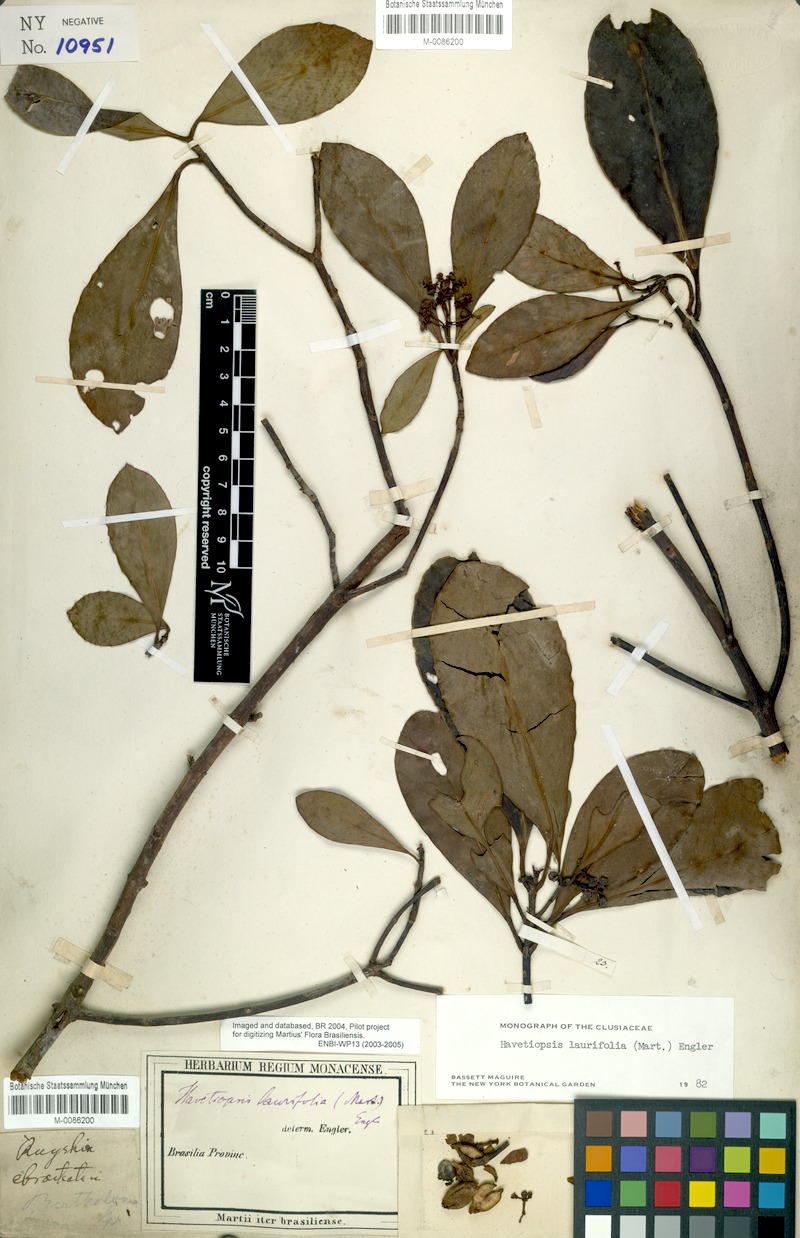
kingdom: Plantae
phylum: Tracheophyta
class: Magnoliopsida
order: Malpighiales
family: Clusiaceae
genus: Clusia
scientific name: Clusia flavida
